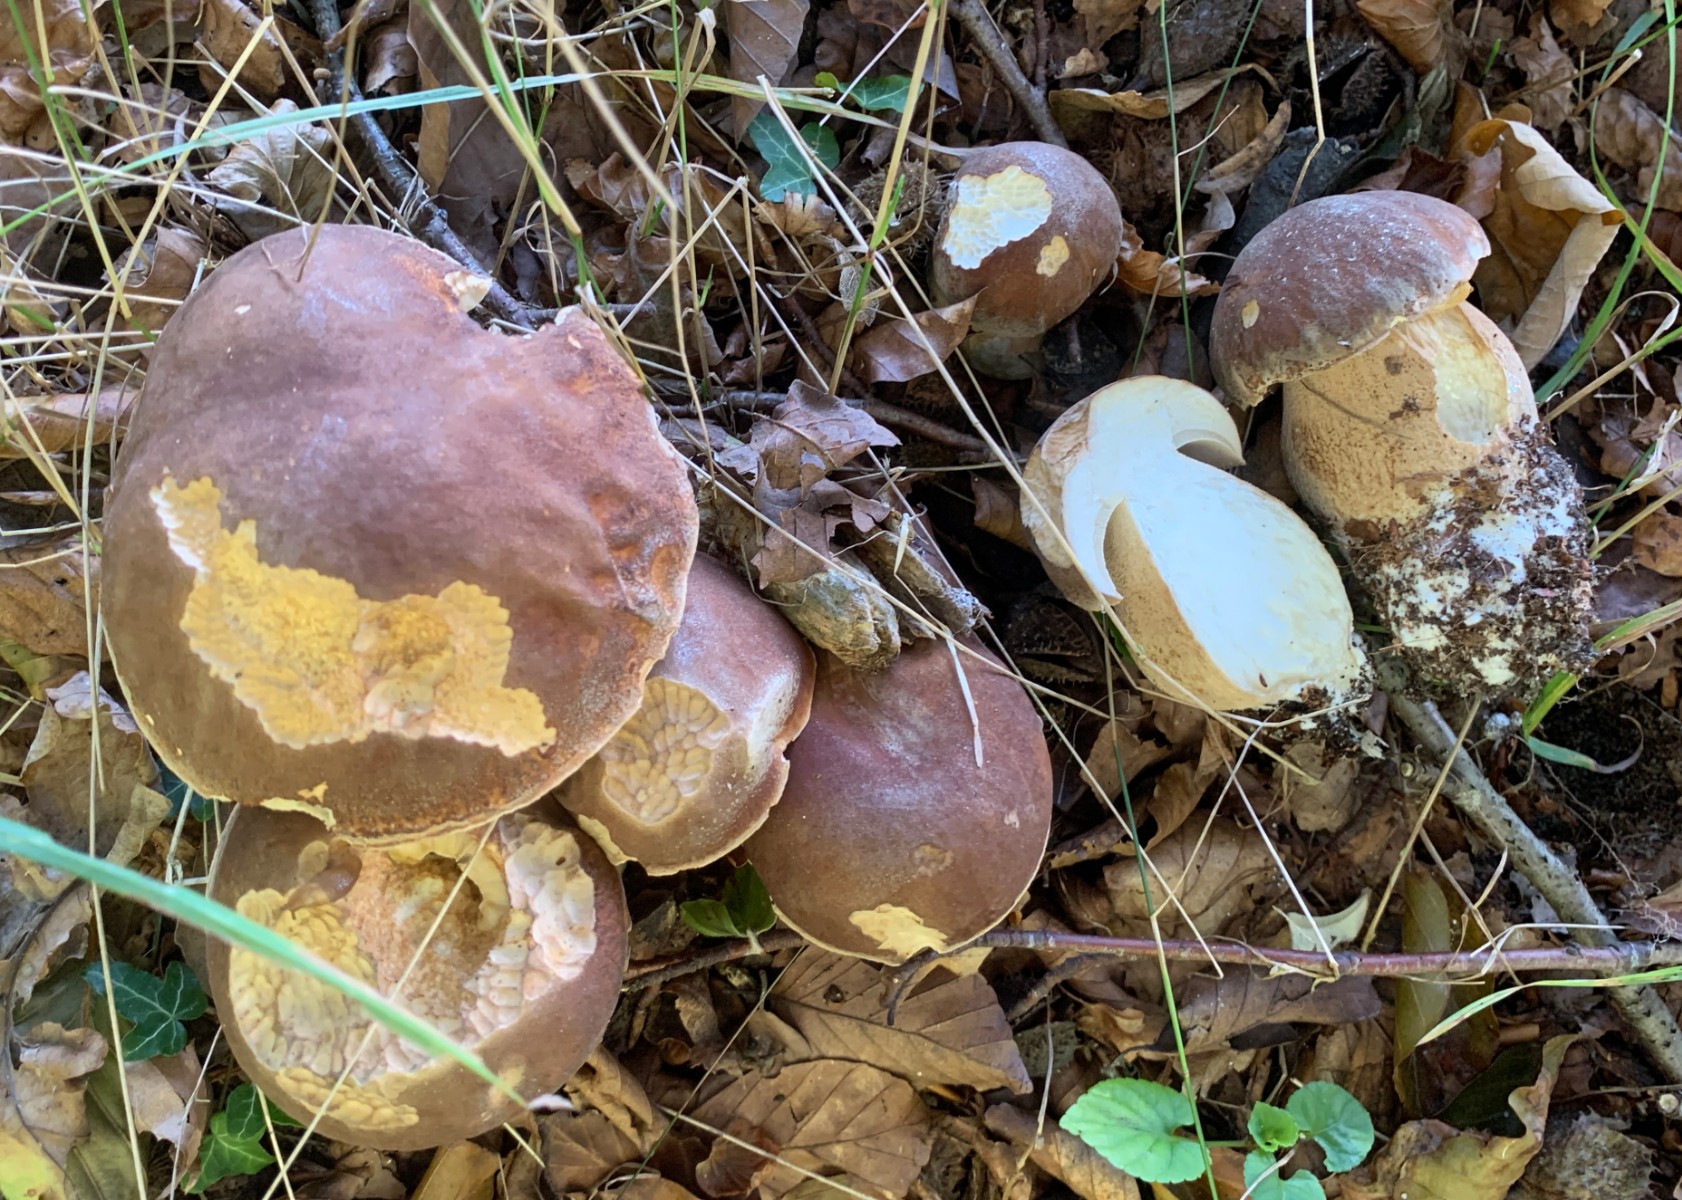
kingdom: Fungi
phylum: Basidiomycota
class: Agaricomycetes
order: Boletales
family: Boletaceae
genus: Boletus
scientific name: Boletus edulis
